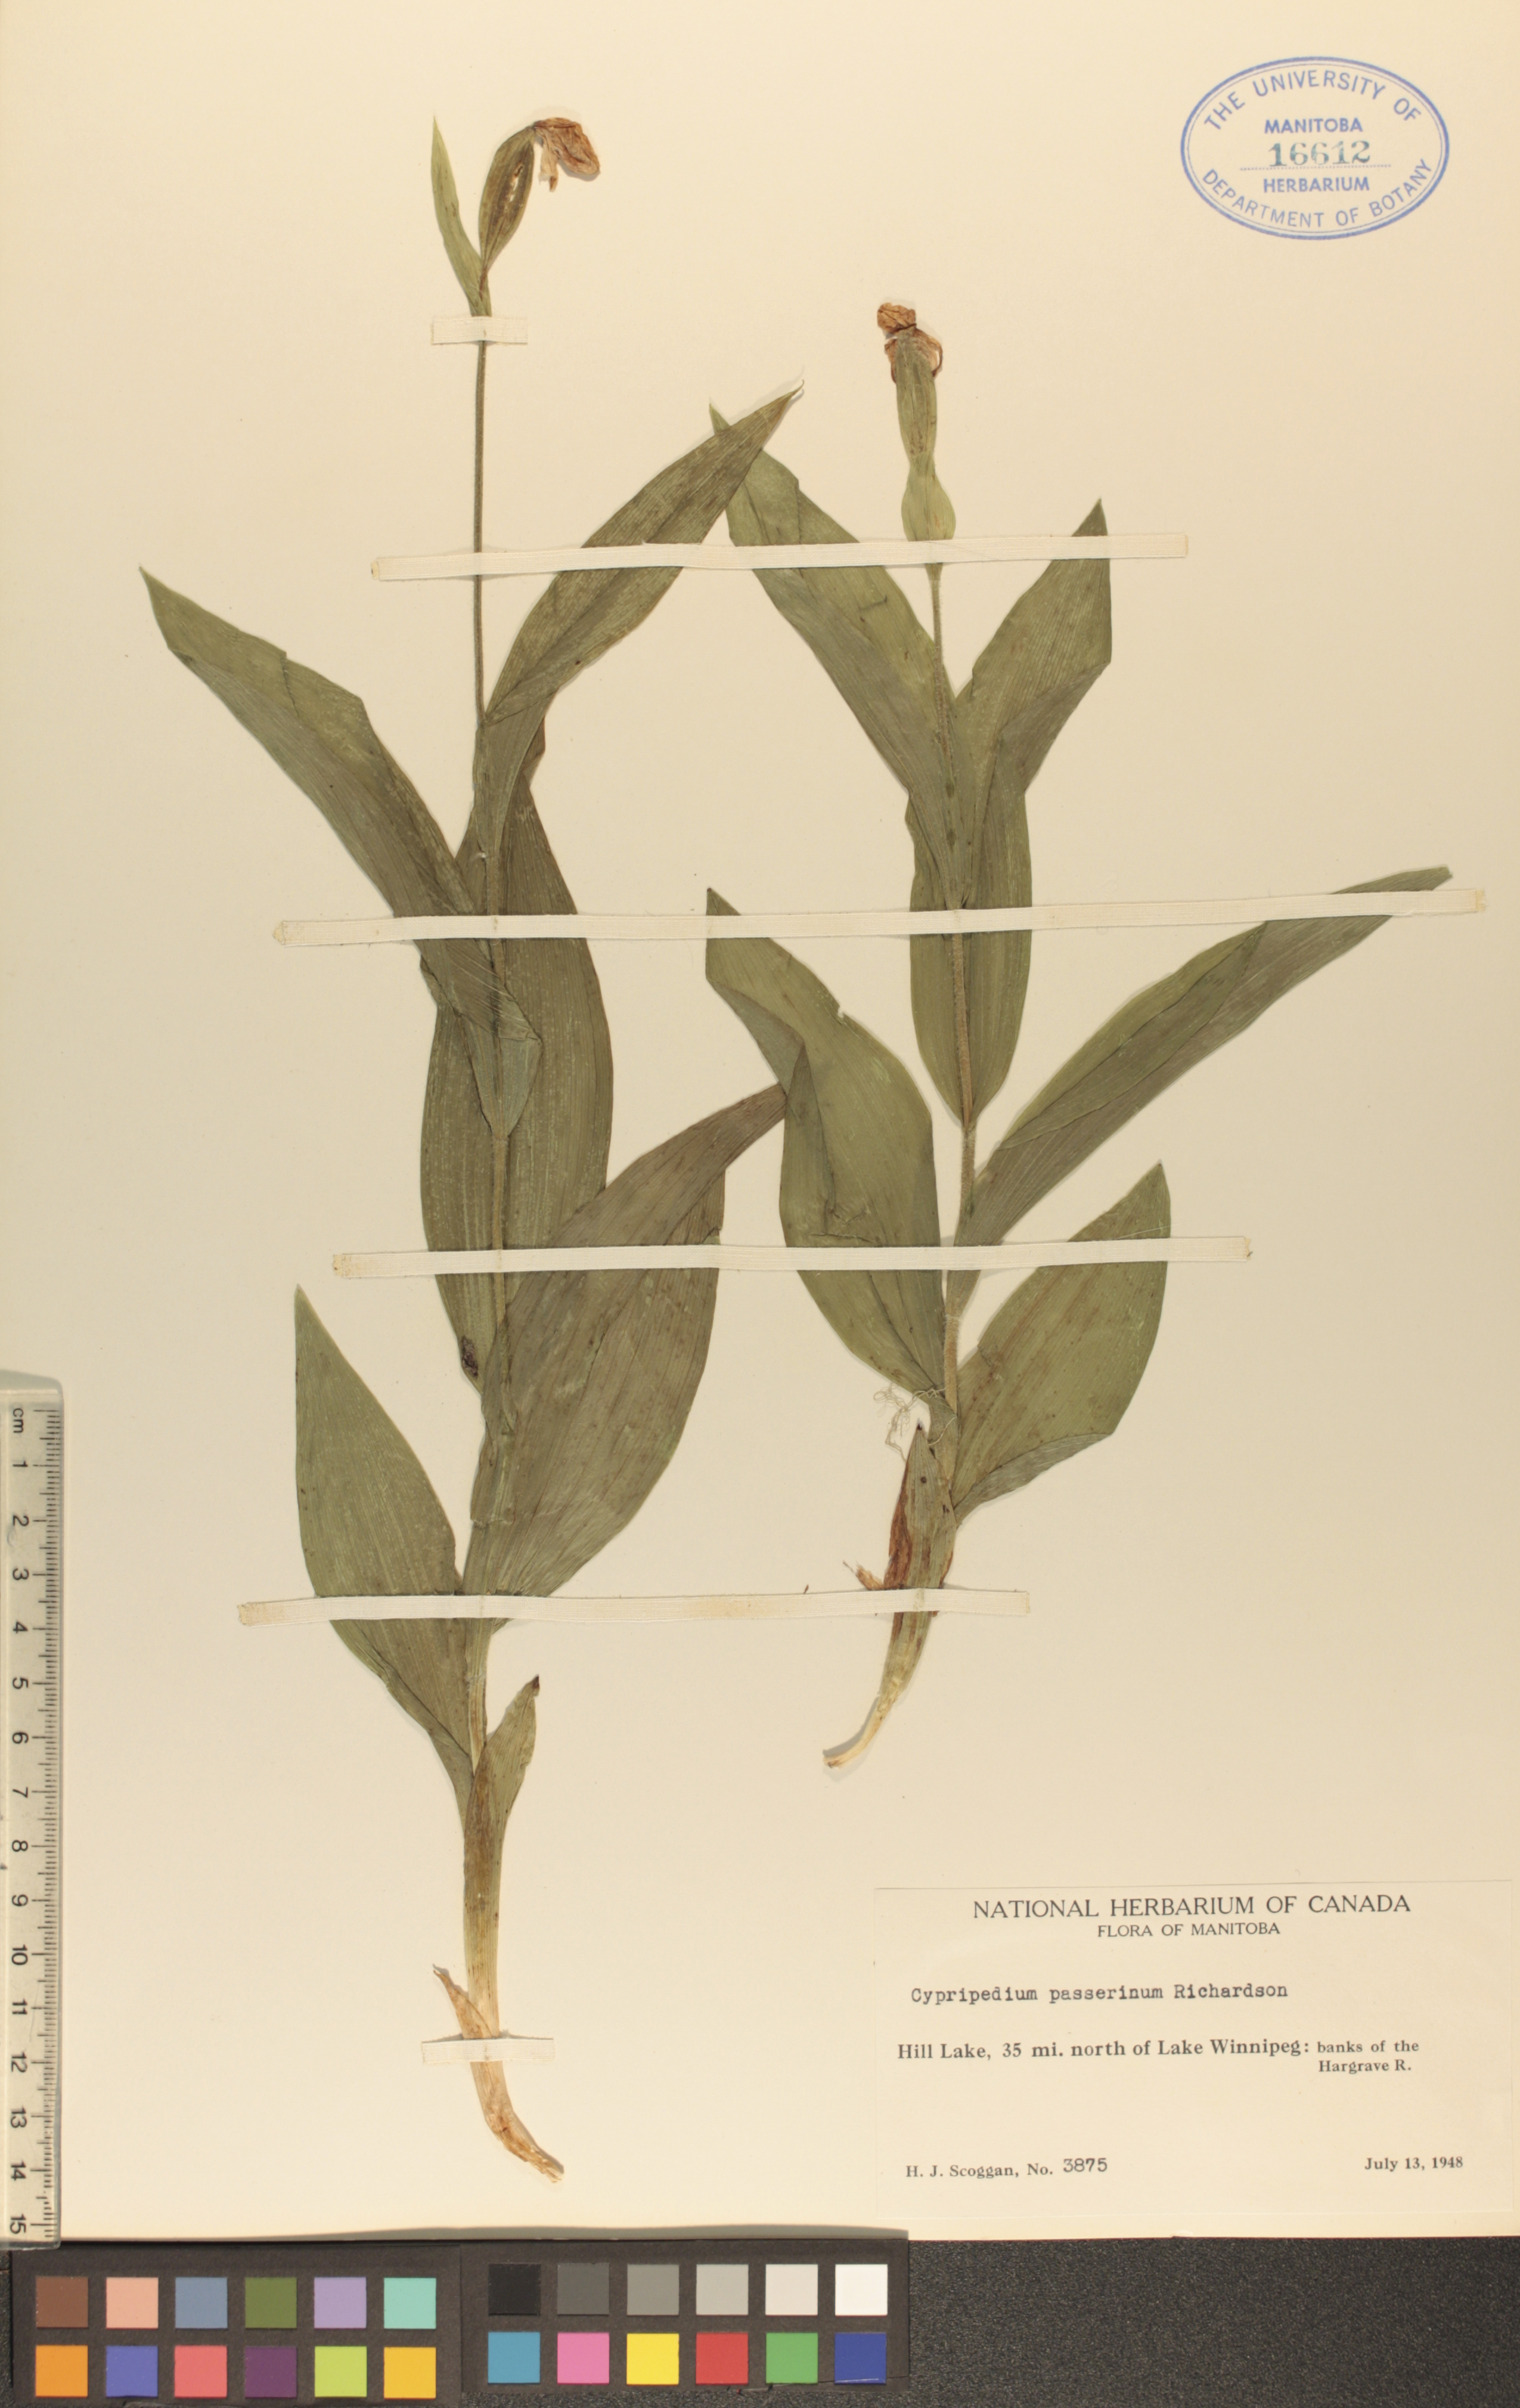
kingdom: Plantae
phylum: Tracheophyta
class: Liliopsida
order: Asparagales
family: Orchidaceae
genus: Cypripedium
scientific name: Cypripedium passerinum
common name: Sparrow's-egg lady's-slipper
